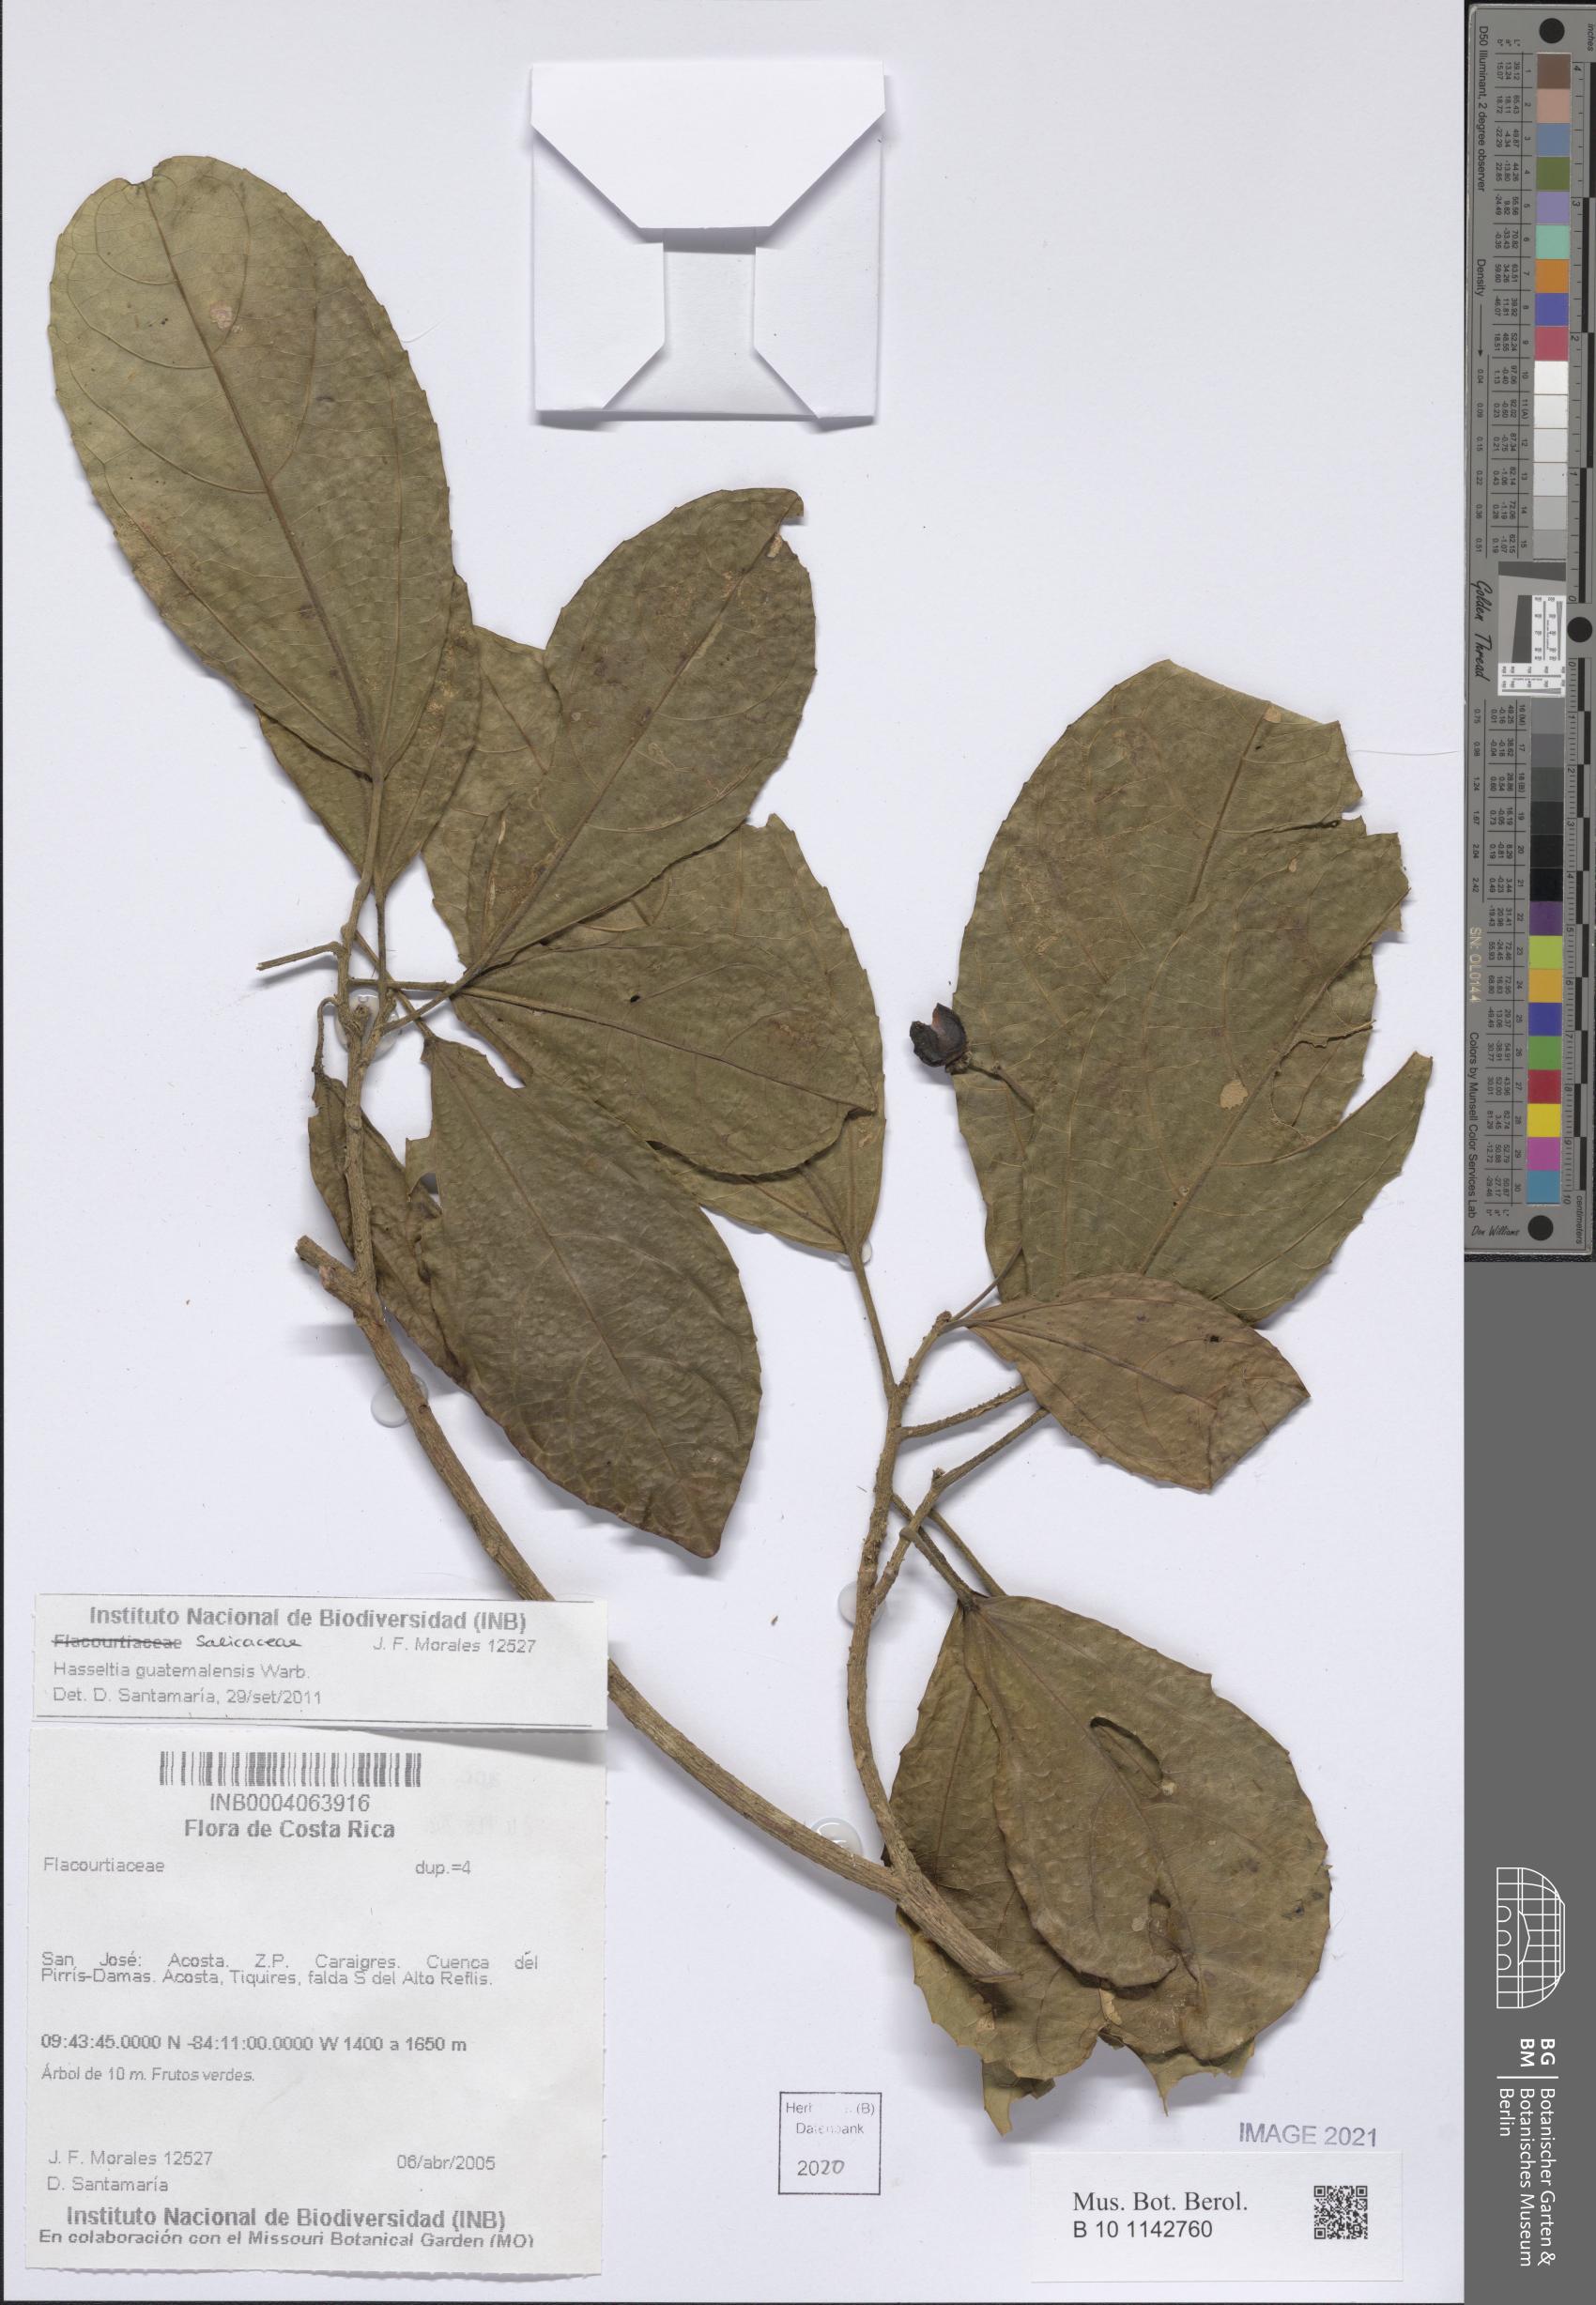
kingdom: Plantae
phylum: Tracheophyta
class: Magnoliopsida
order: Malpighiales
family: Salicaceae
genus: Hasseltia
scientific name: Hasseltia guatemalensis
